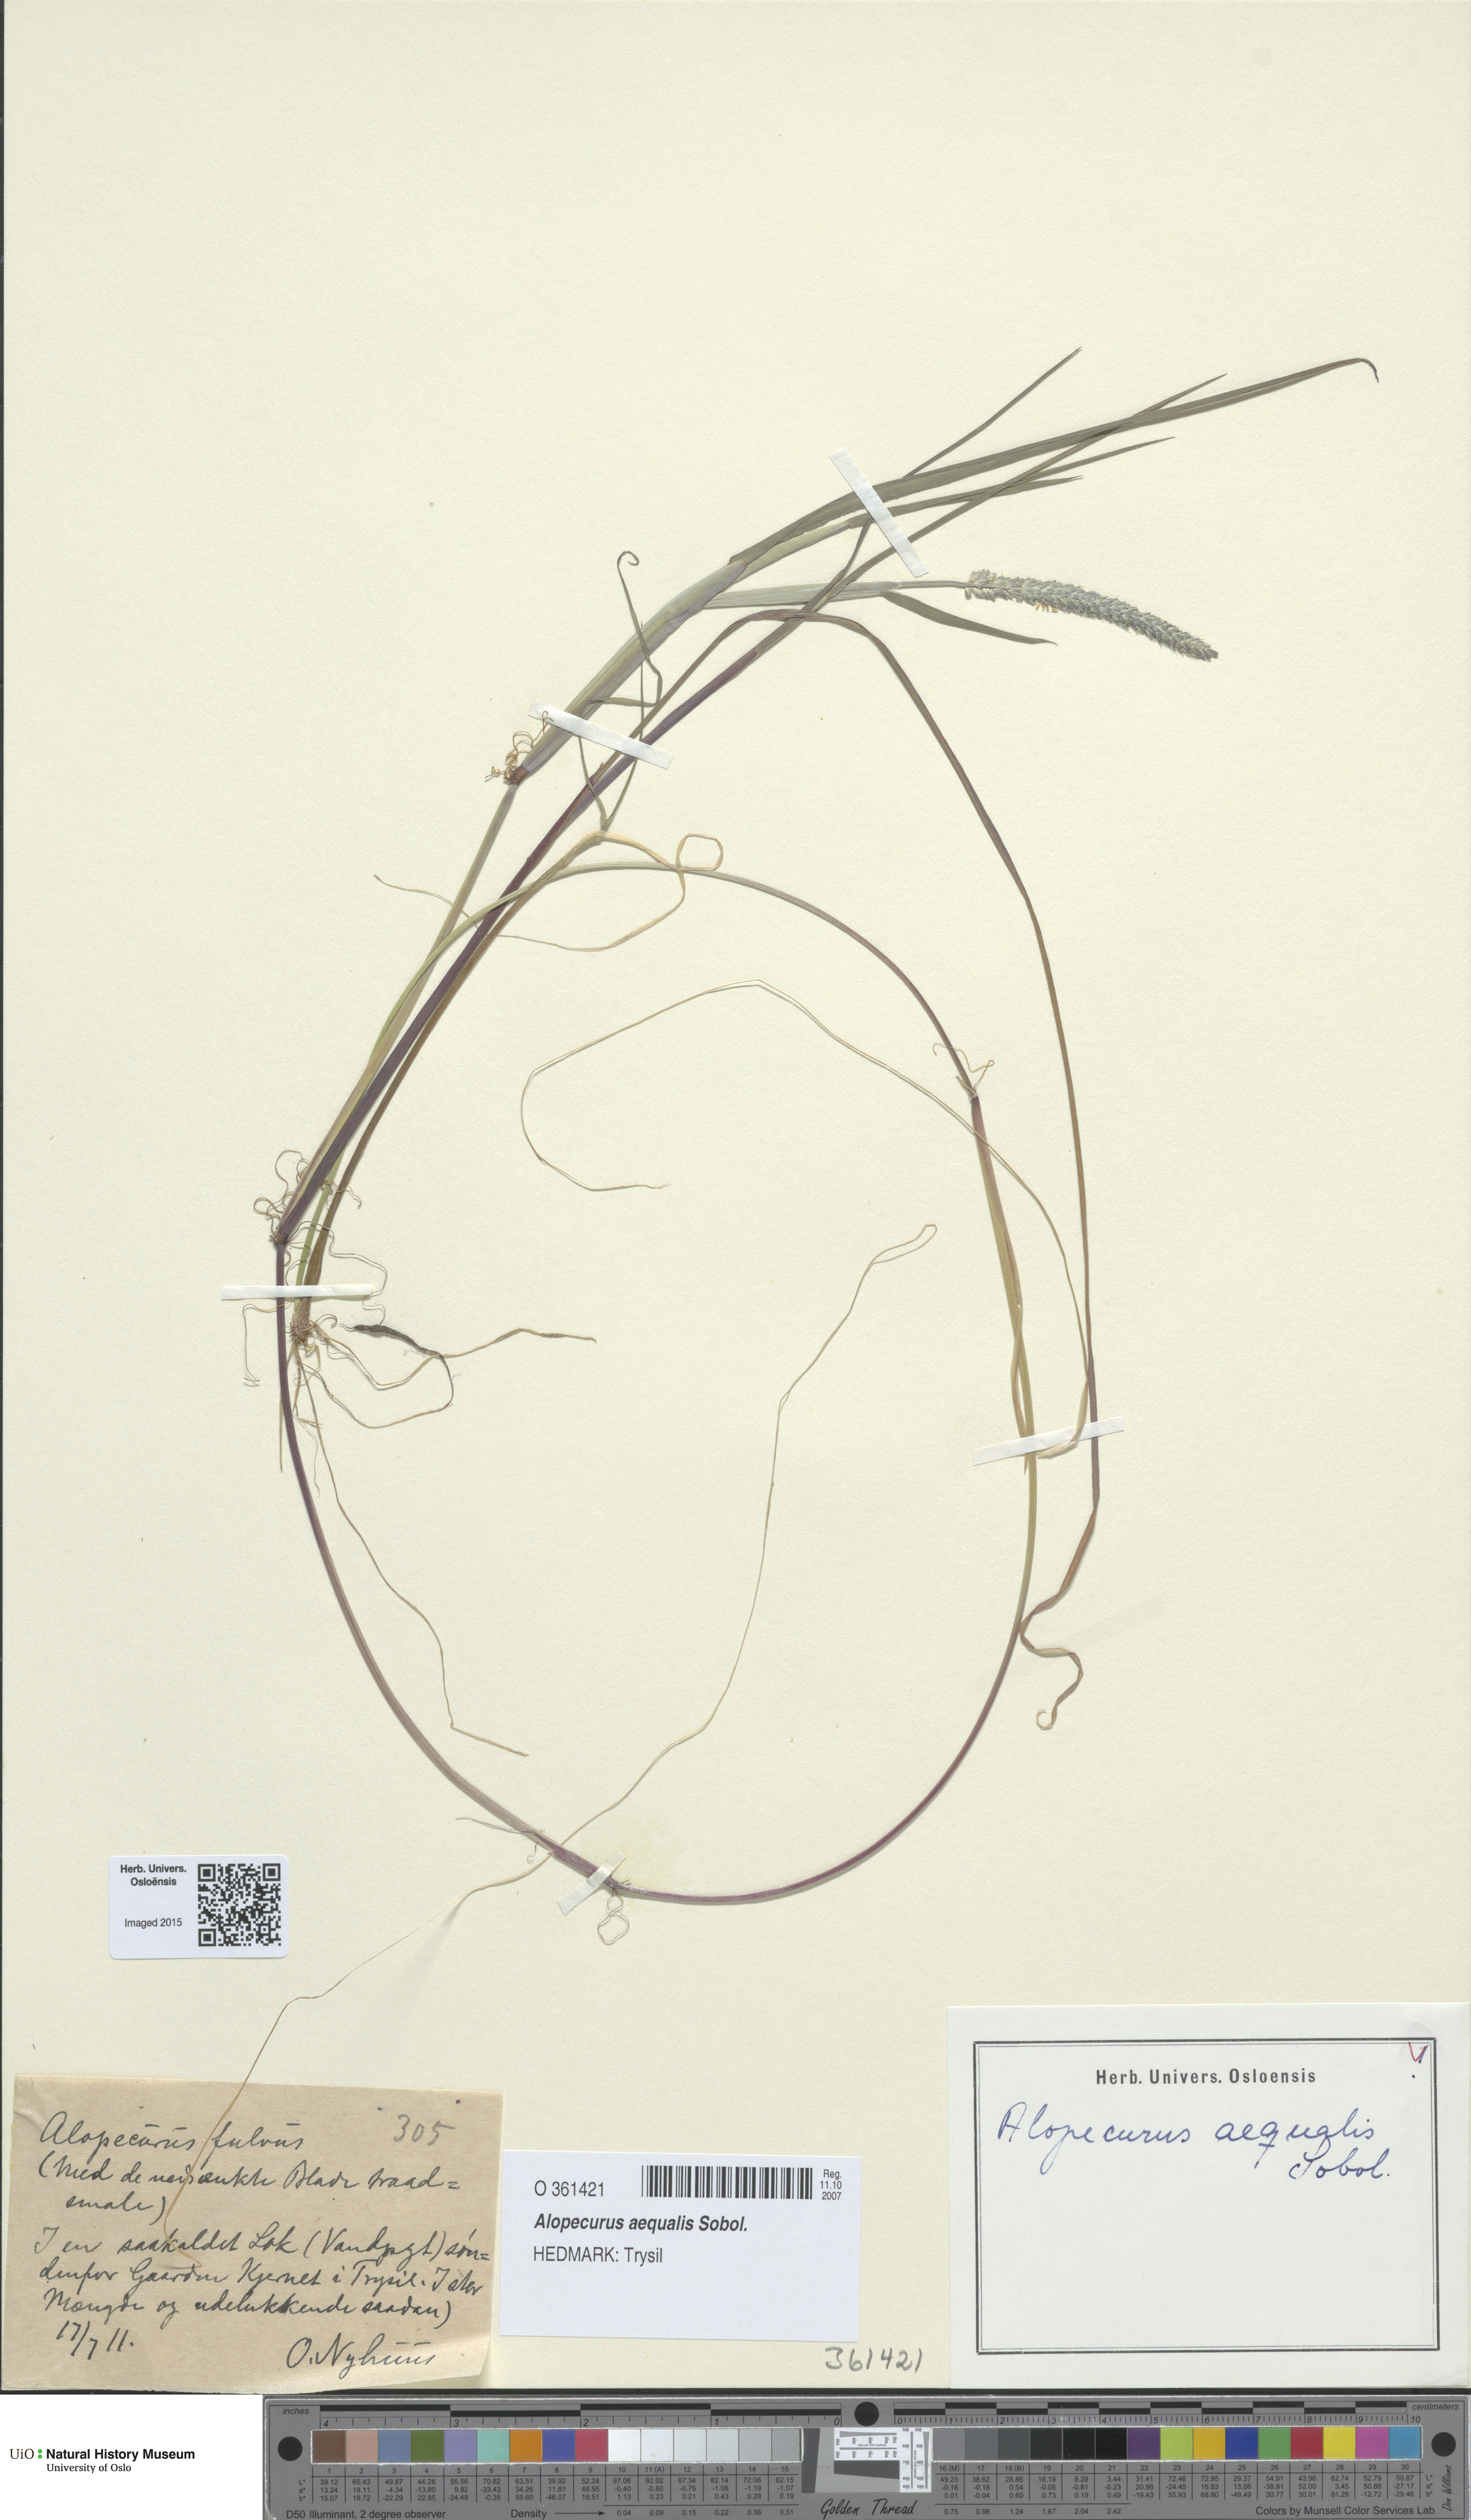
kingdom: Plantae
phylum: Tracheophyta
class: Liliopsida
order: Poales
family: Poaceae
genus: Alopecurus
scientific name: Alopecurus aequalis
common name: Orange foxtail
